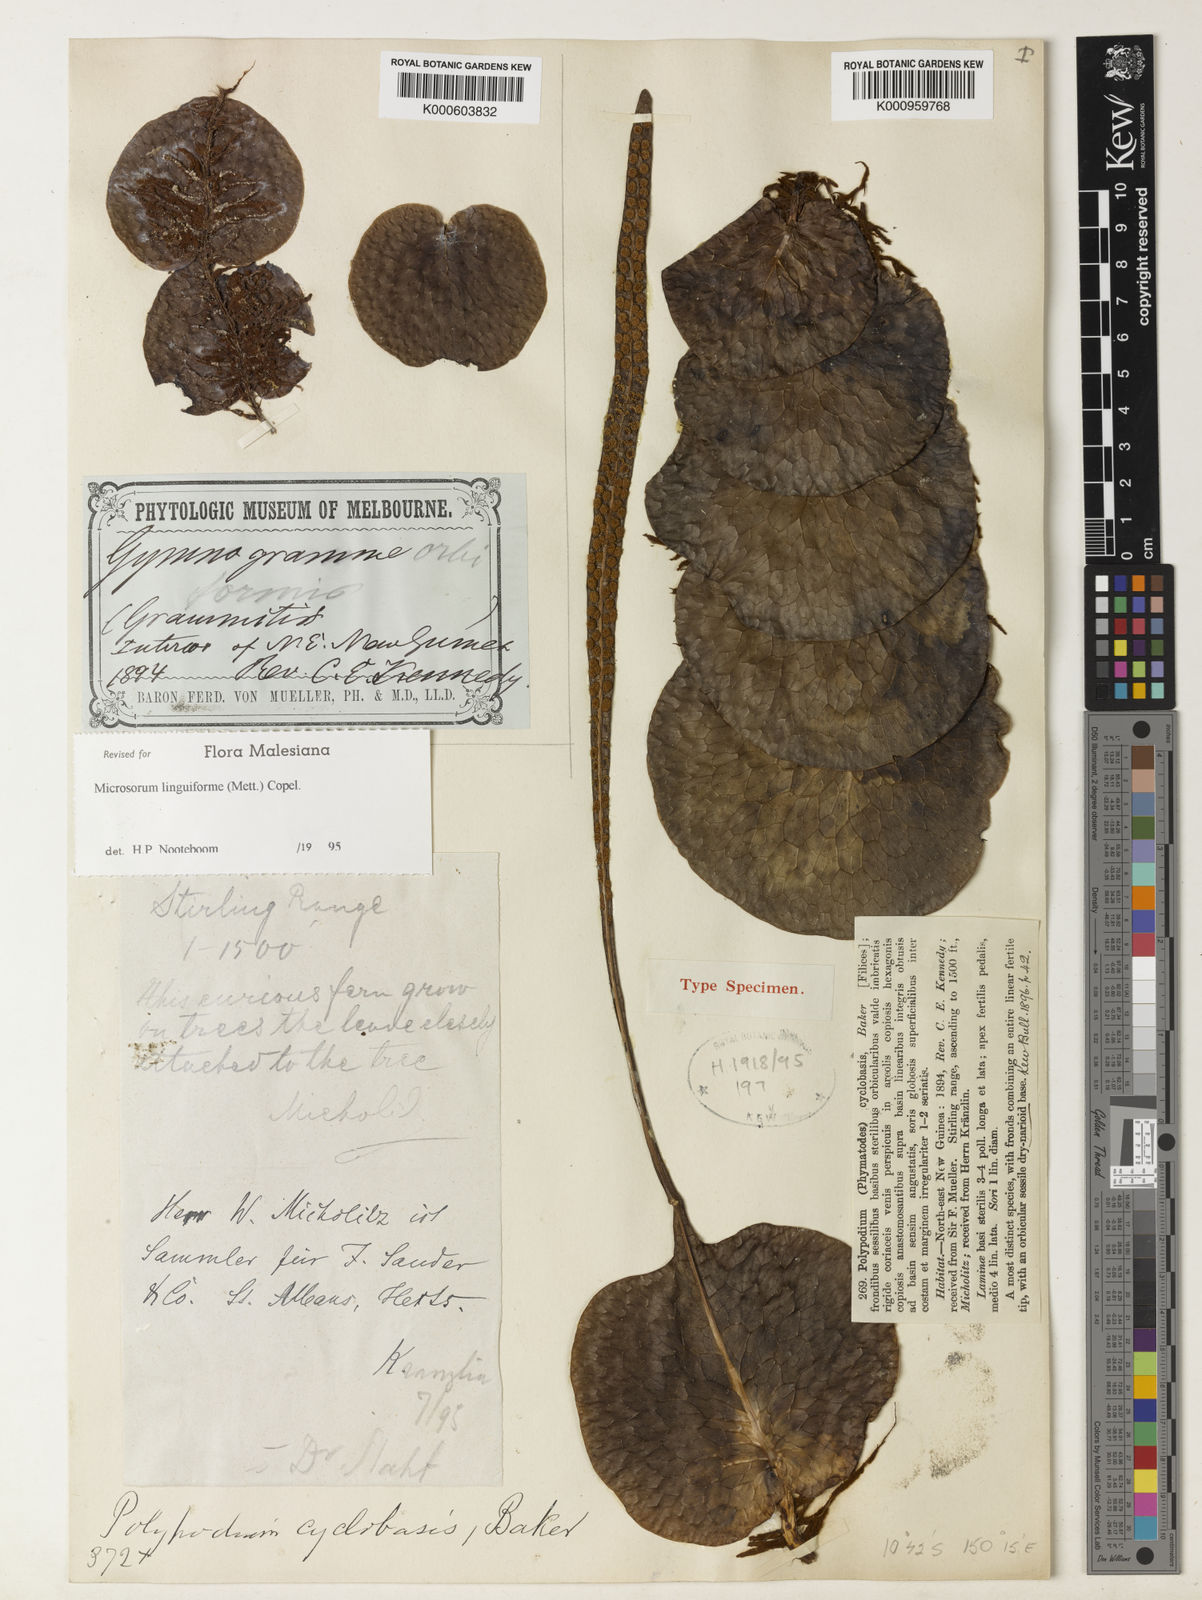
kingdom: Plantae
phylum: Tracheophyta
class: Polypodiopsida
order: Polypodiales
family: Polypodiaceae
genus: Lecanopteris
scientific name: Lecanopteris linguiformis
